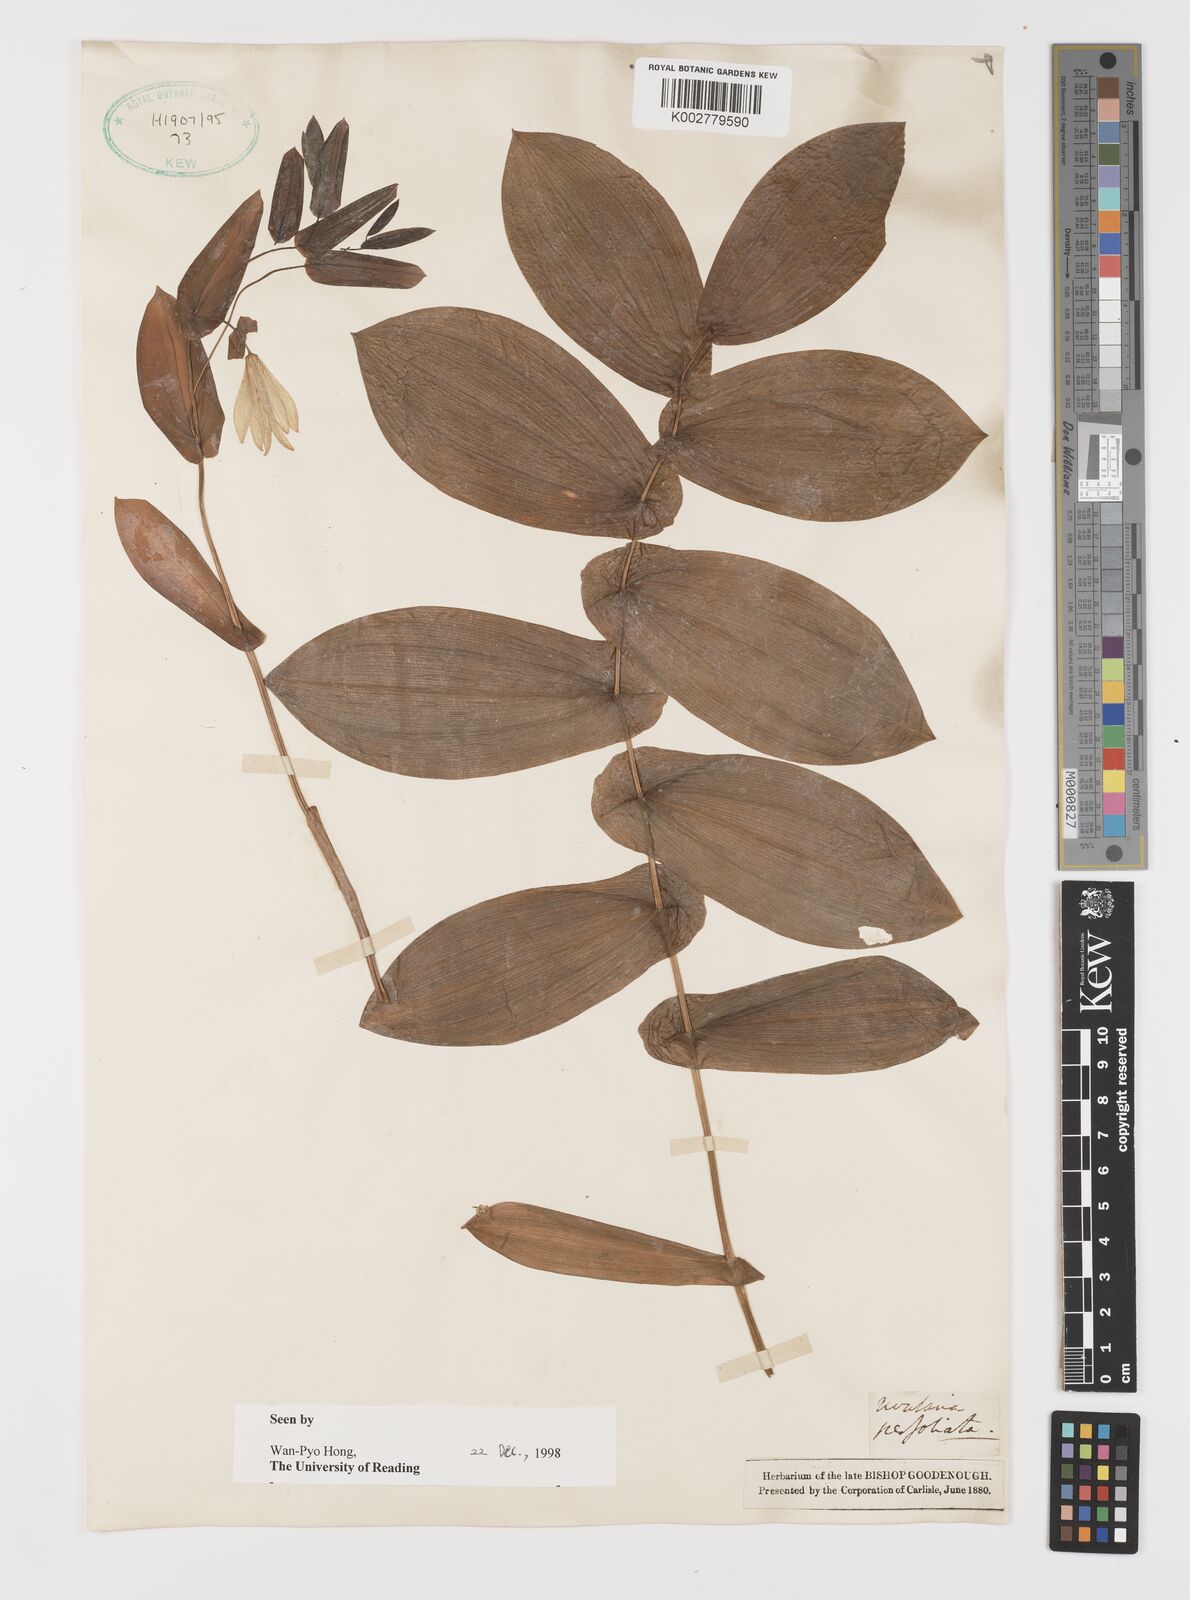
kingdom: Plantae
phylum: Tracheophyta
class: Liliopsida
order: Liliales
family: Colchicaceae
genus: Uvularia
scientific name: Uvularia perfoliata
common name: Perfoliate bellwort
